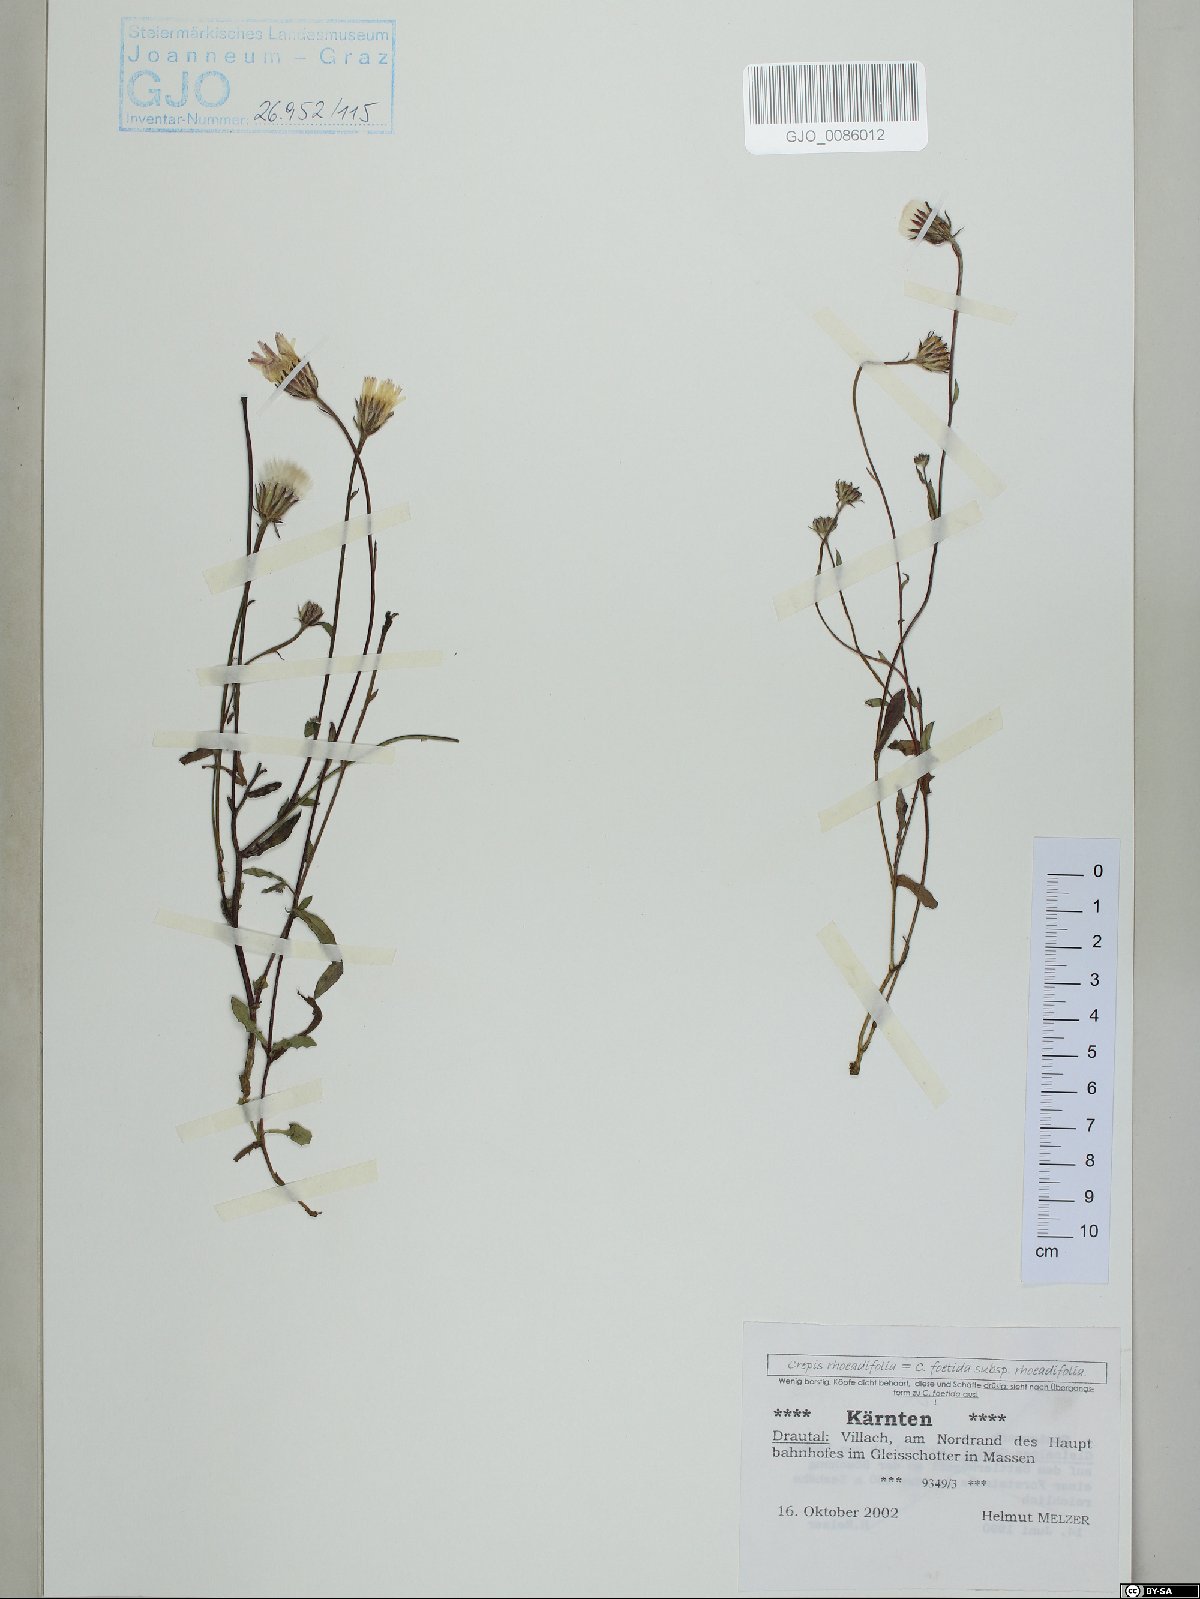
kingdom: Plantae
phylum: Tracheophyta
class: Magnoliopsida
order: Asterales
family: Asteraceae
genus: Crepis
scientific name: Crepis foetida
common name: Stinking hawk's-beard
